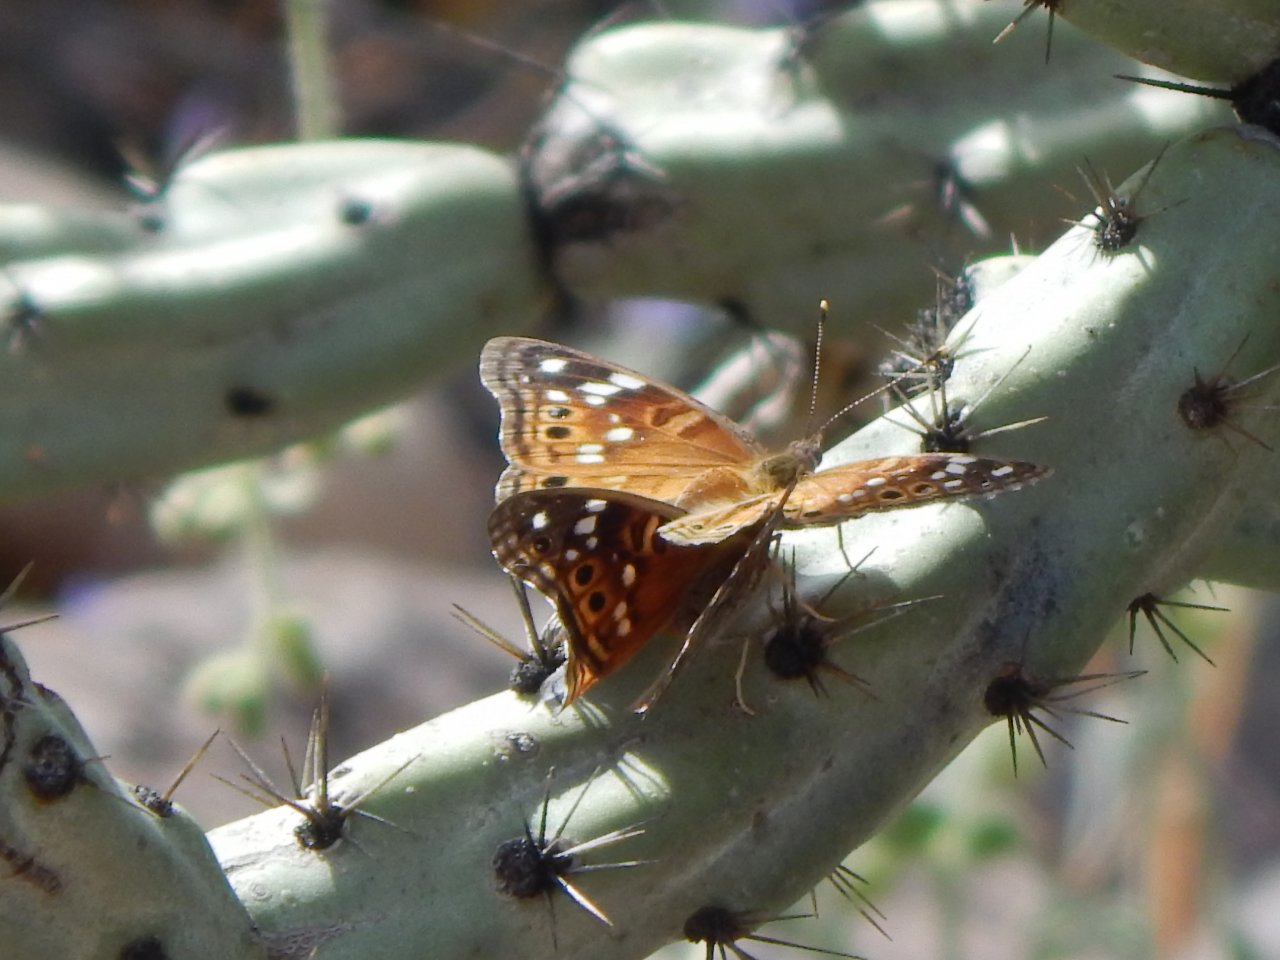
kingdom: Animalia
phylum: Arthropoda
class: Insecta
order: Lepidoptera
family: Nymphalidae
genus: Asterocampa
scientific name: Asterocampa leilia
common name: Empress Leilia
